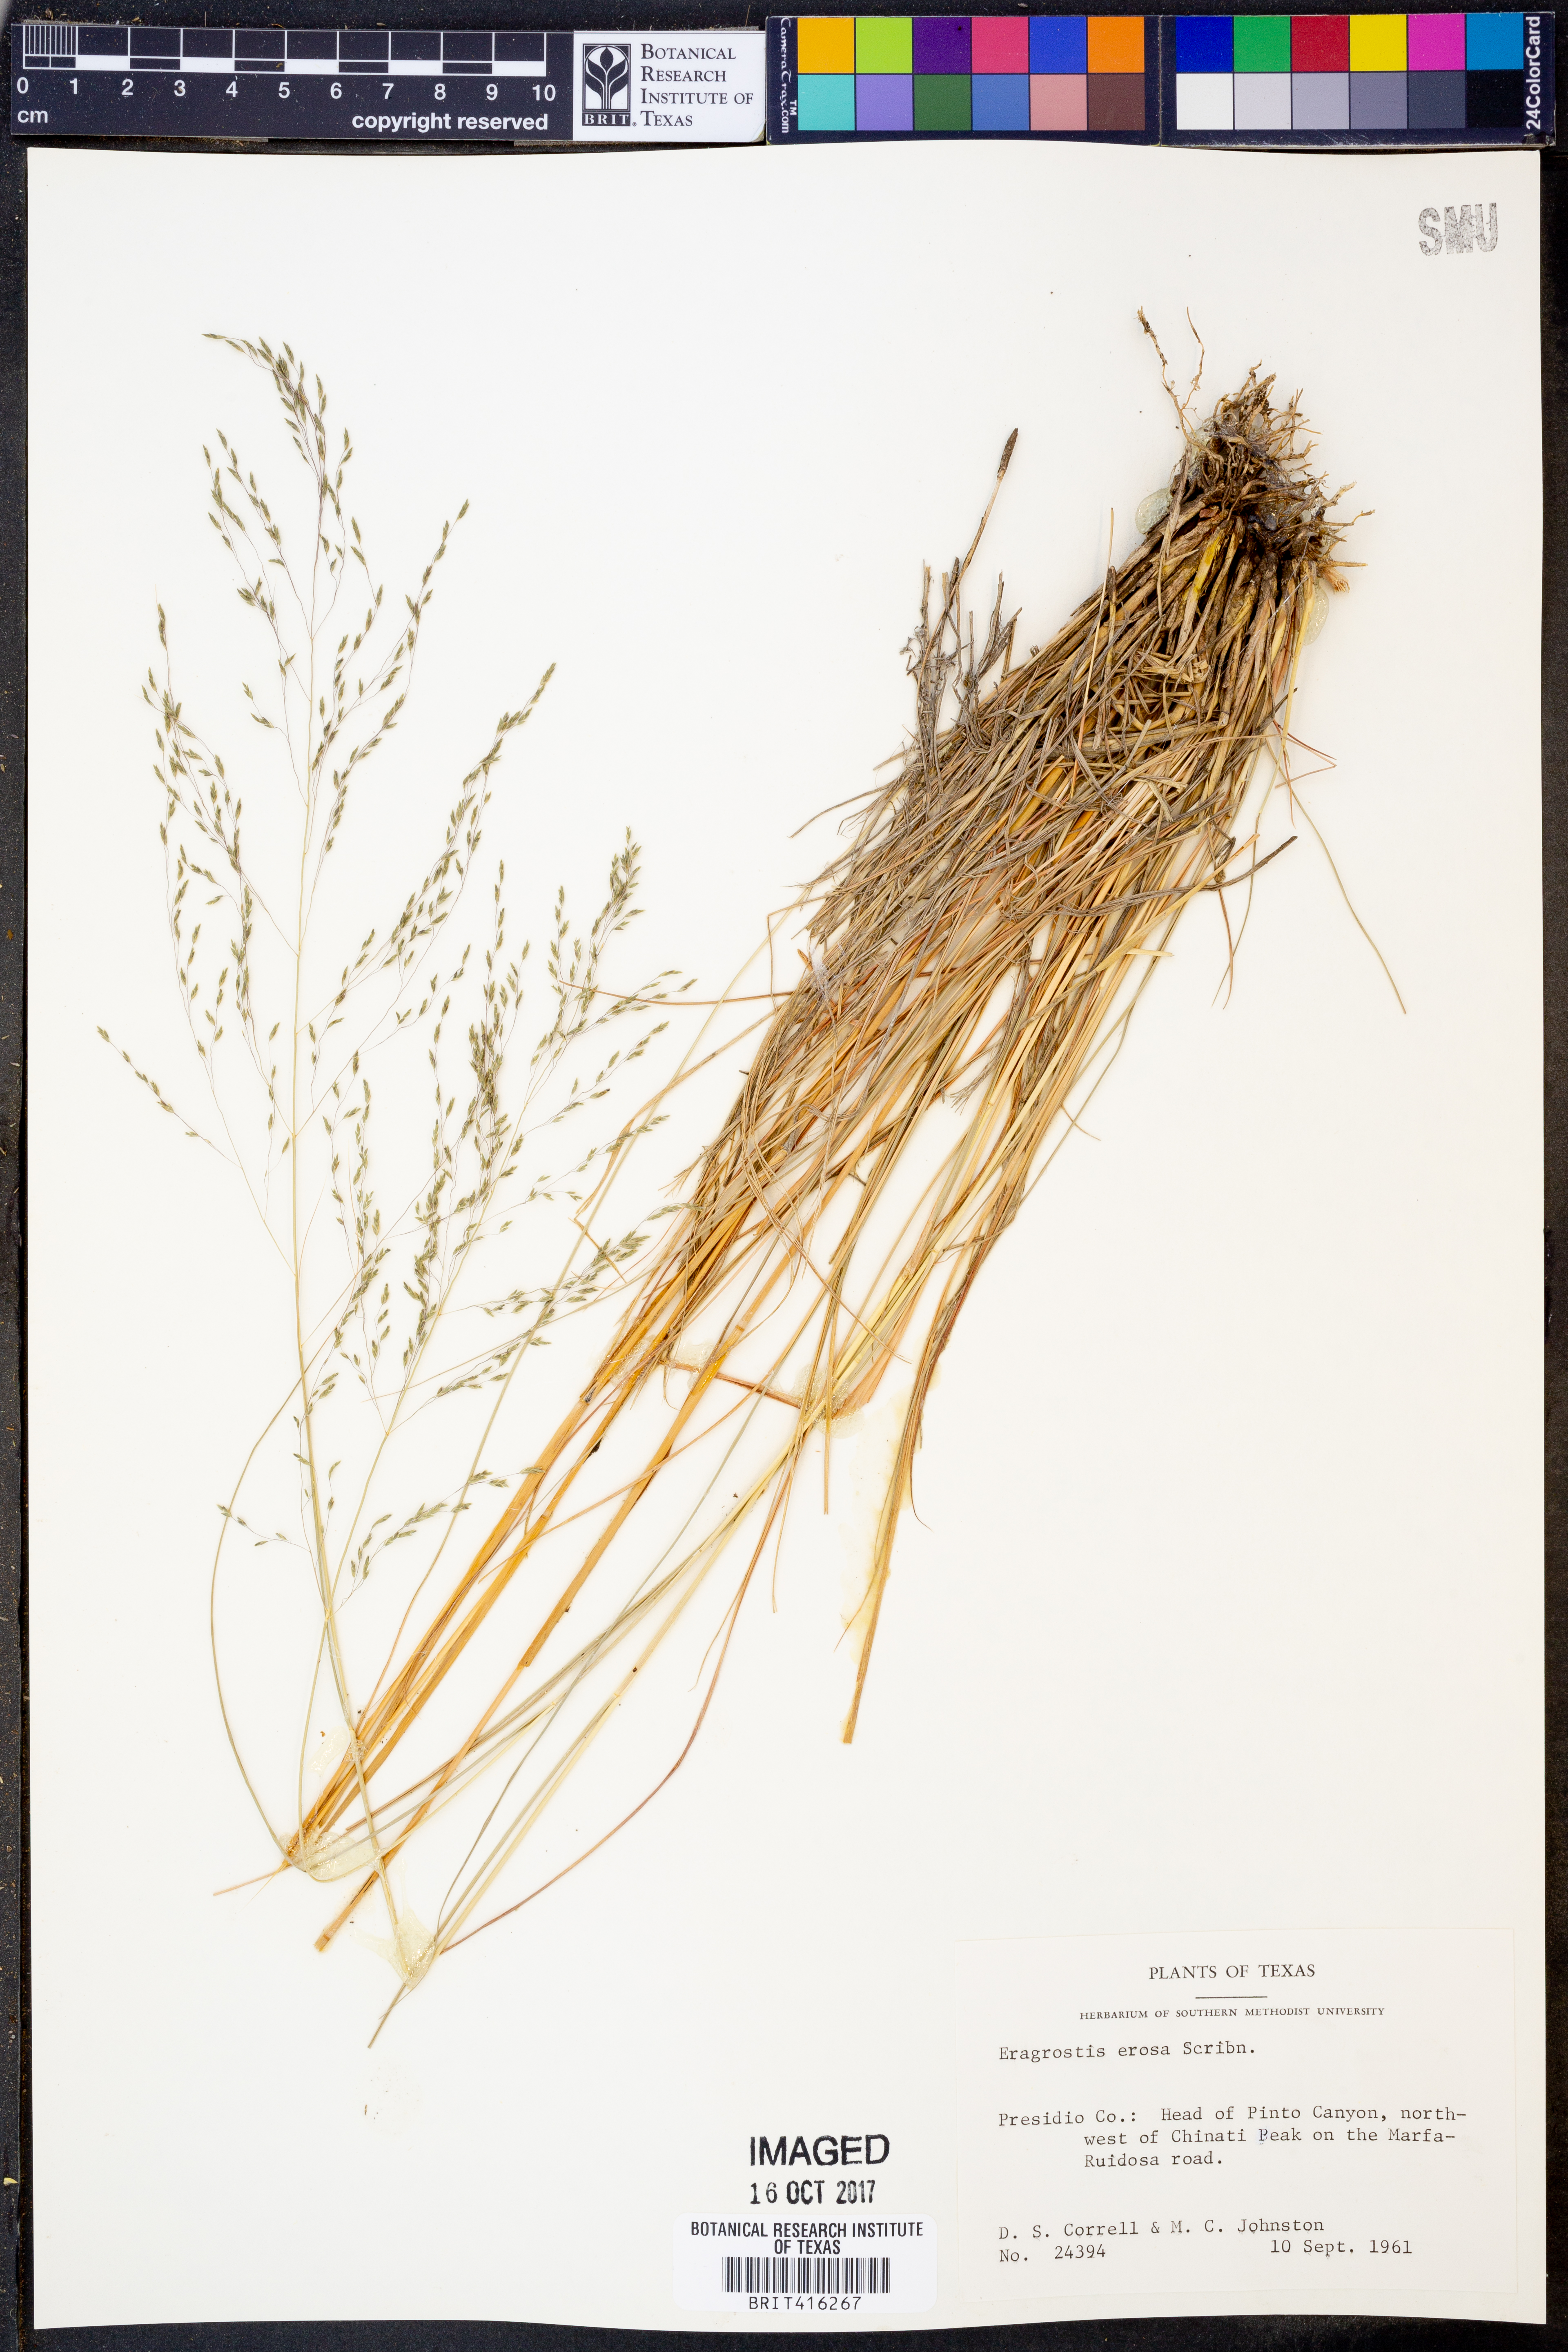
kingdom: Plantae
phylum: Tracheophyta
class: Liliopsida
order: Poales
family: Poaceae
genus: Eragrostis
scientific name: Eragrostis erosa
